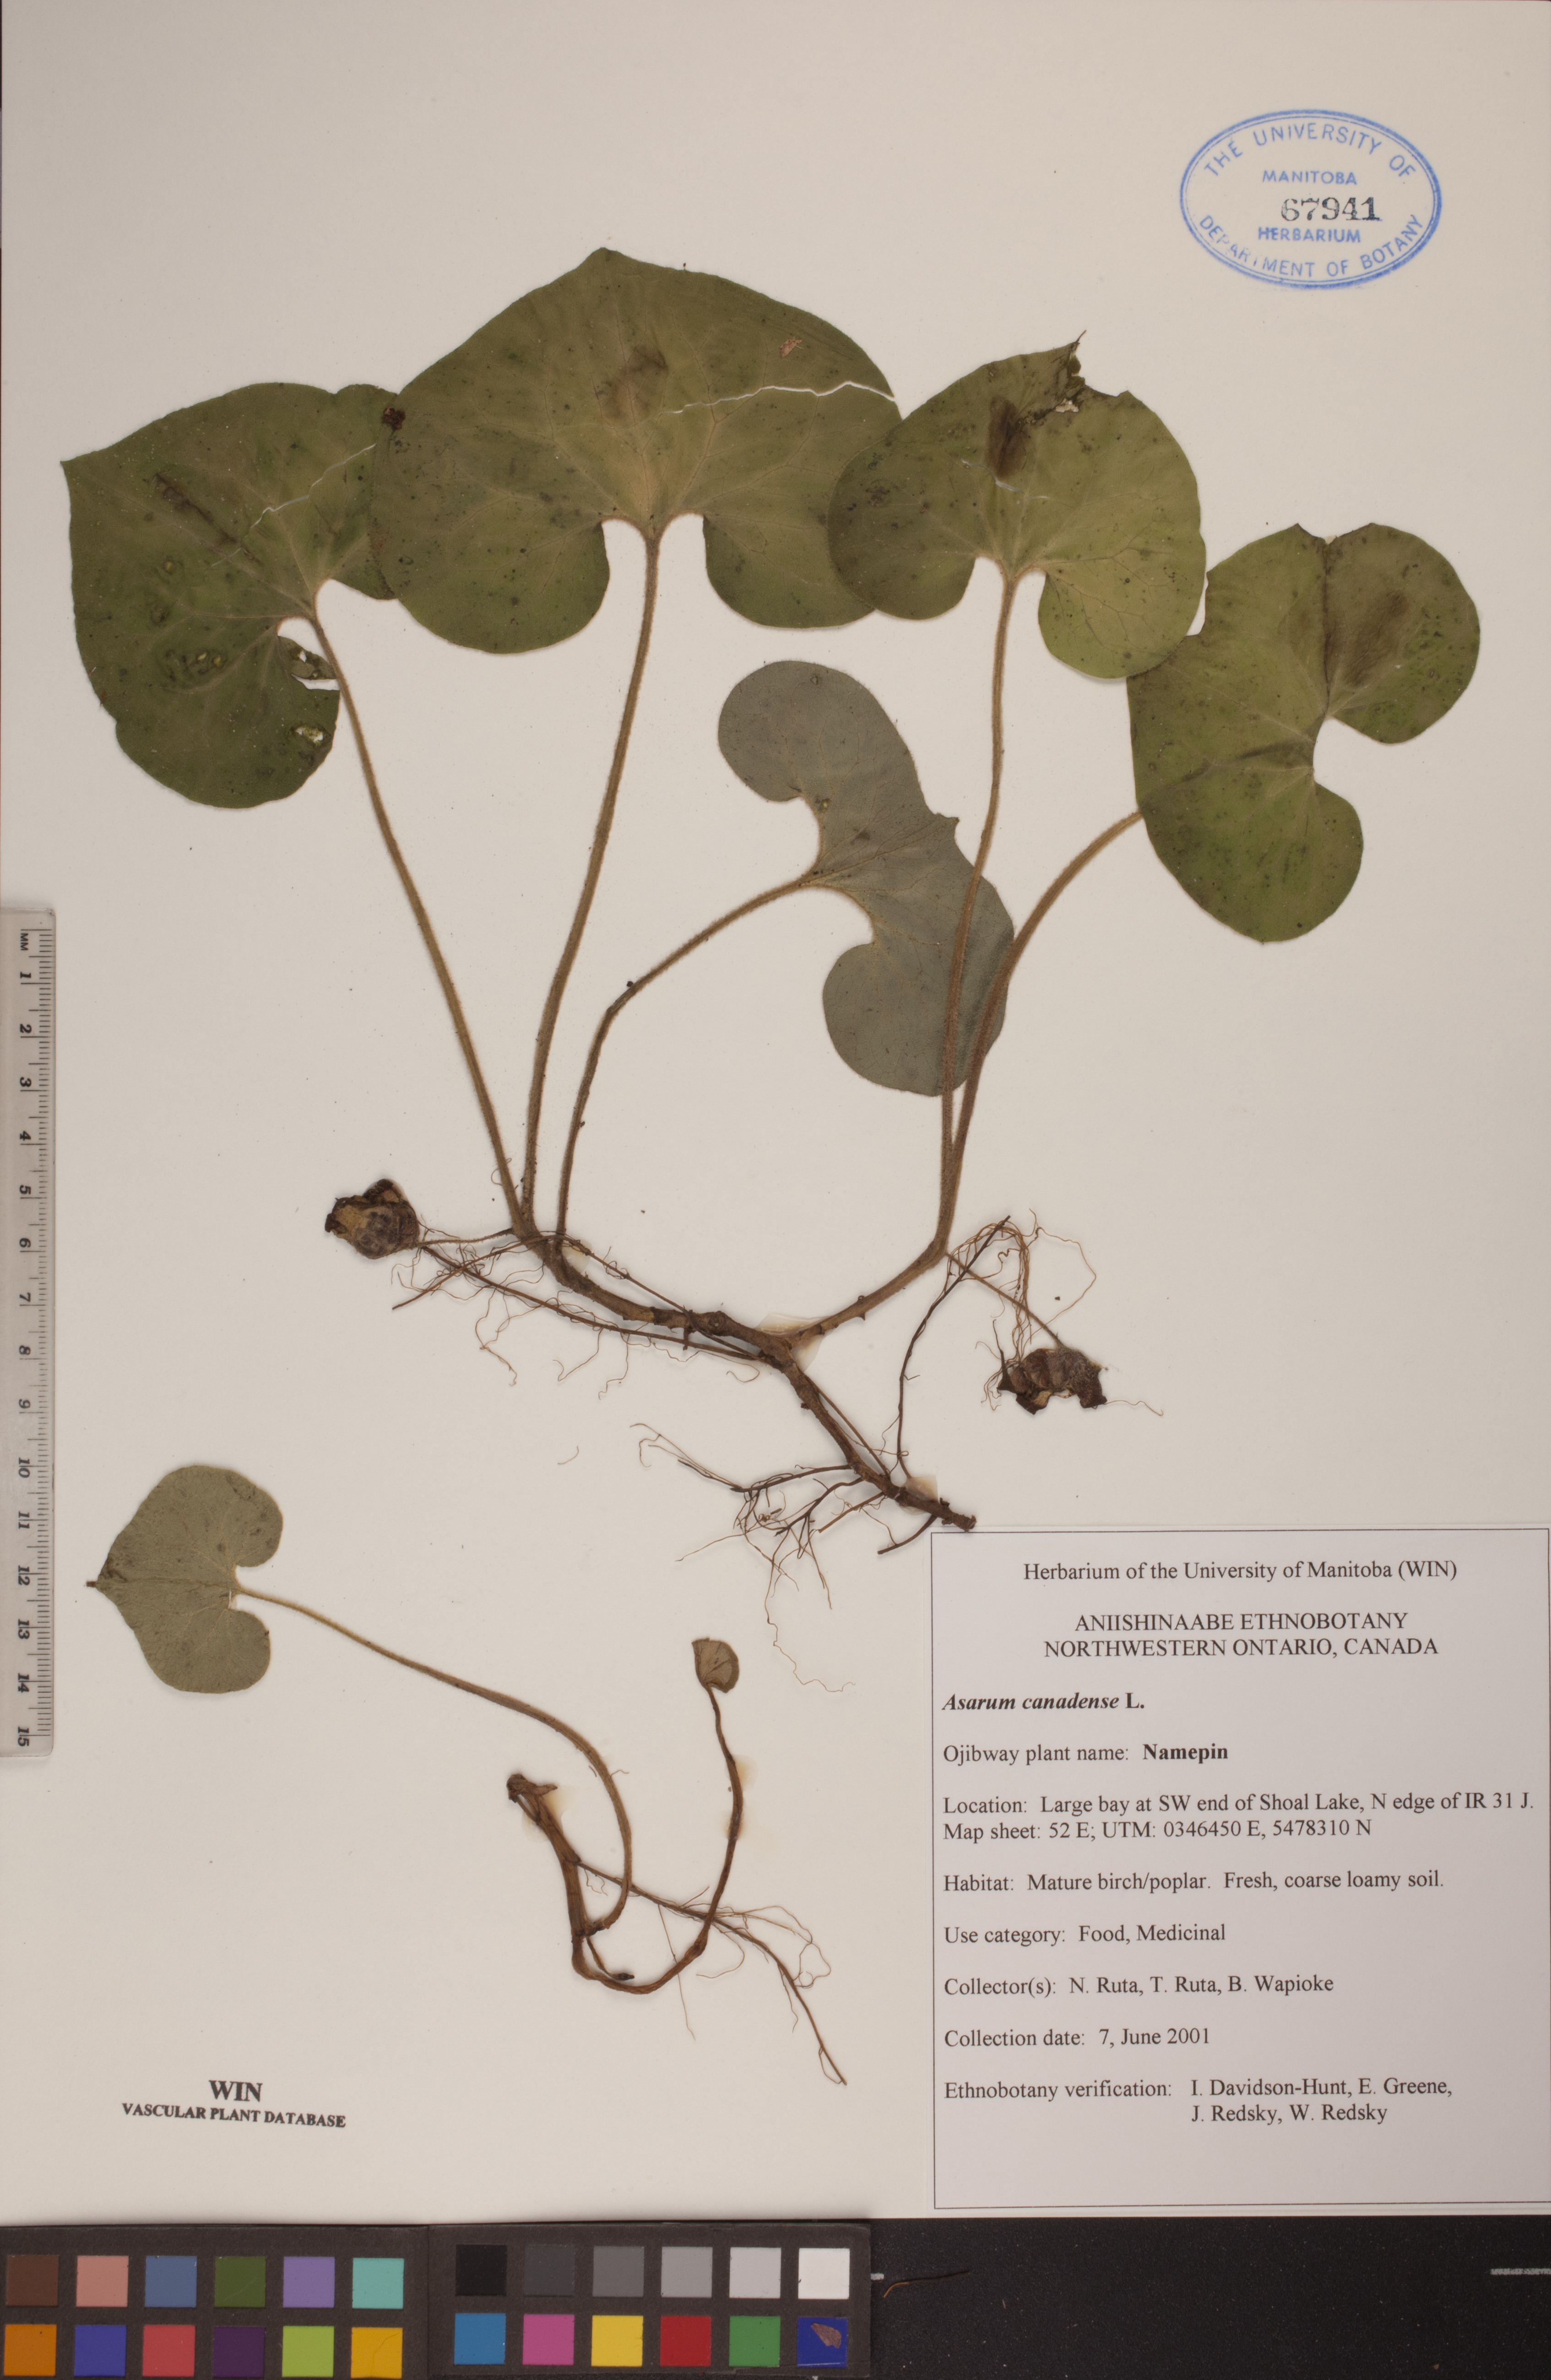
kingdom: Plantae
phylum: Tracheophyta
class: Magnoliopsida
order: Piperales
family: Aristolochiaceae
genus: Asarum
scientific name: Asarum canadense
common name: Wild ginger
